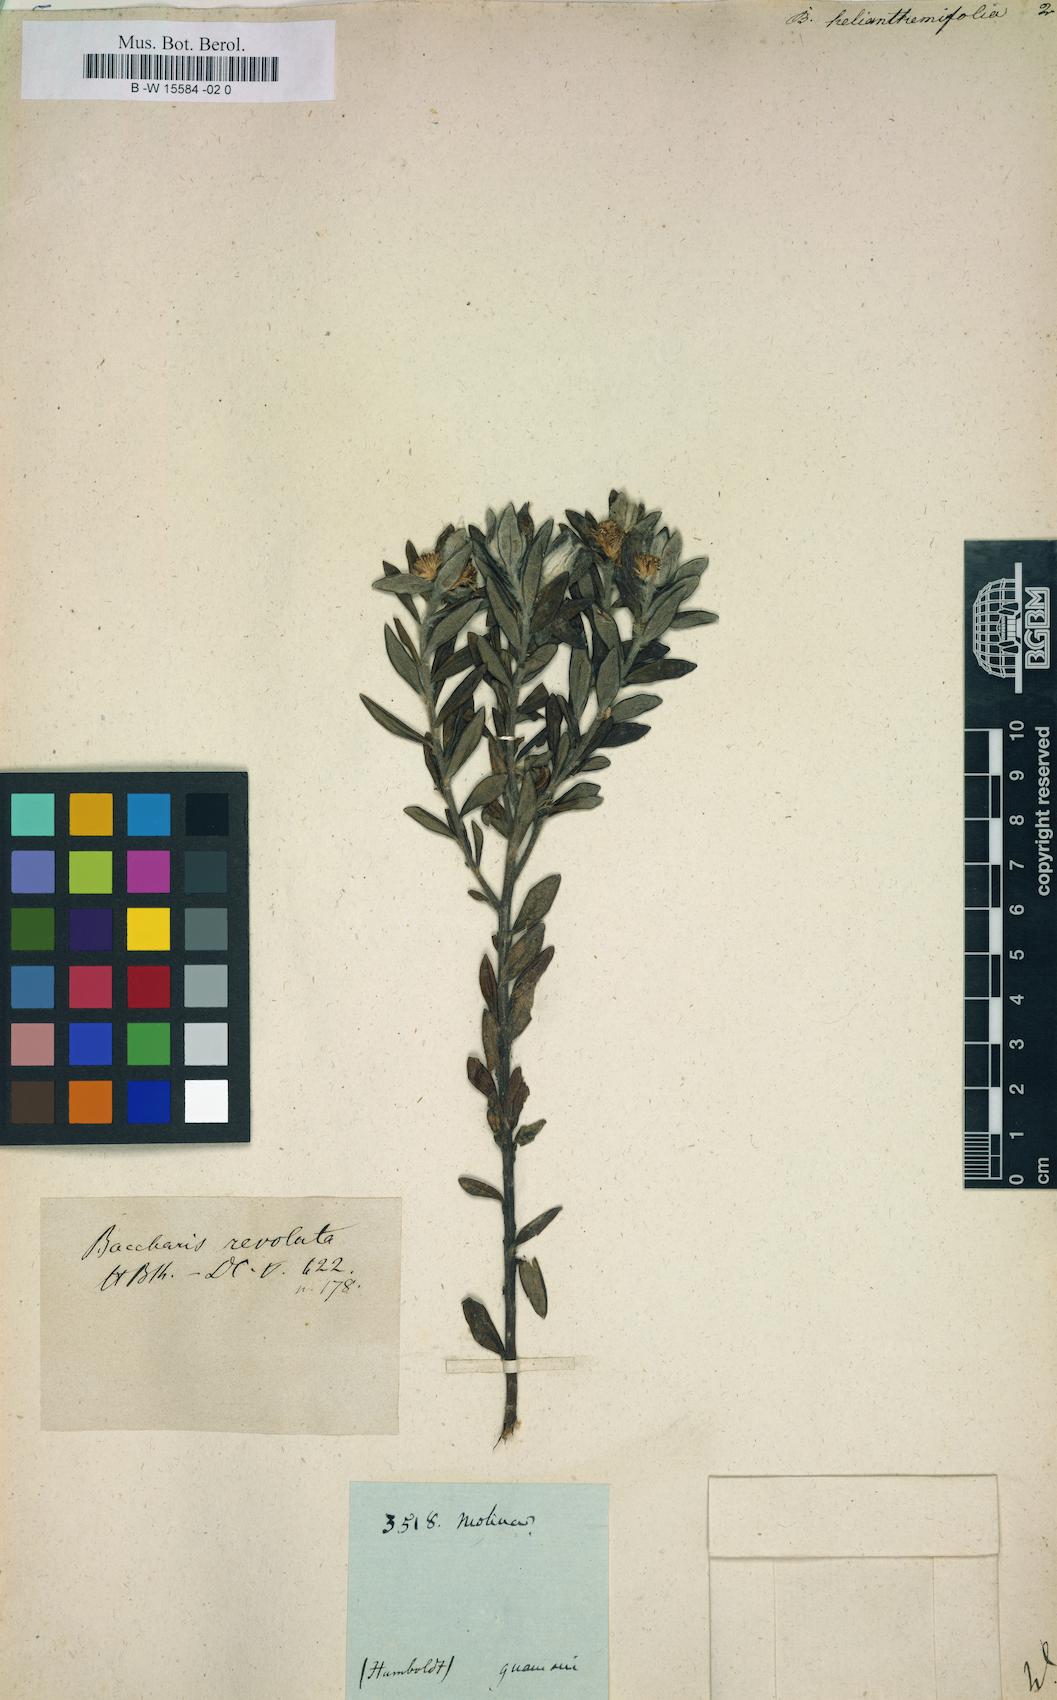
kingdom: Plantae
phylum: Tracheophyta
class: Magnoliopsida
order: Asterales
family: Asteraceae
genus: Baccharis
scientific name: Baccharis
